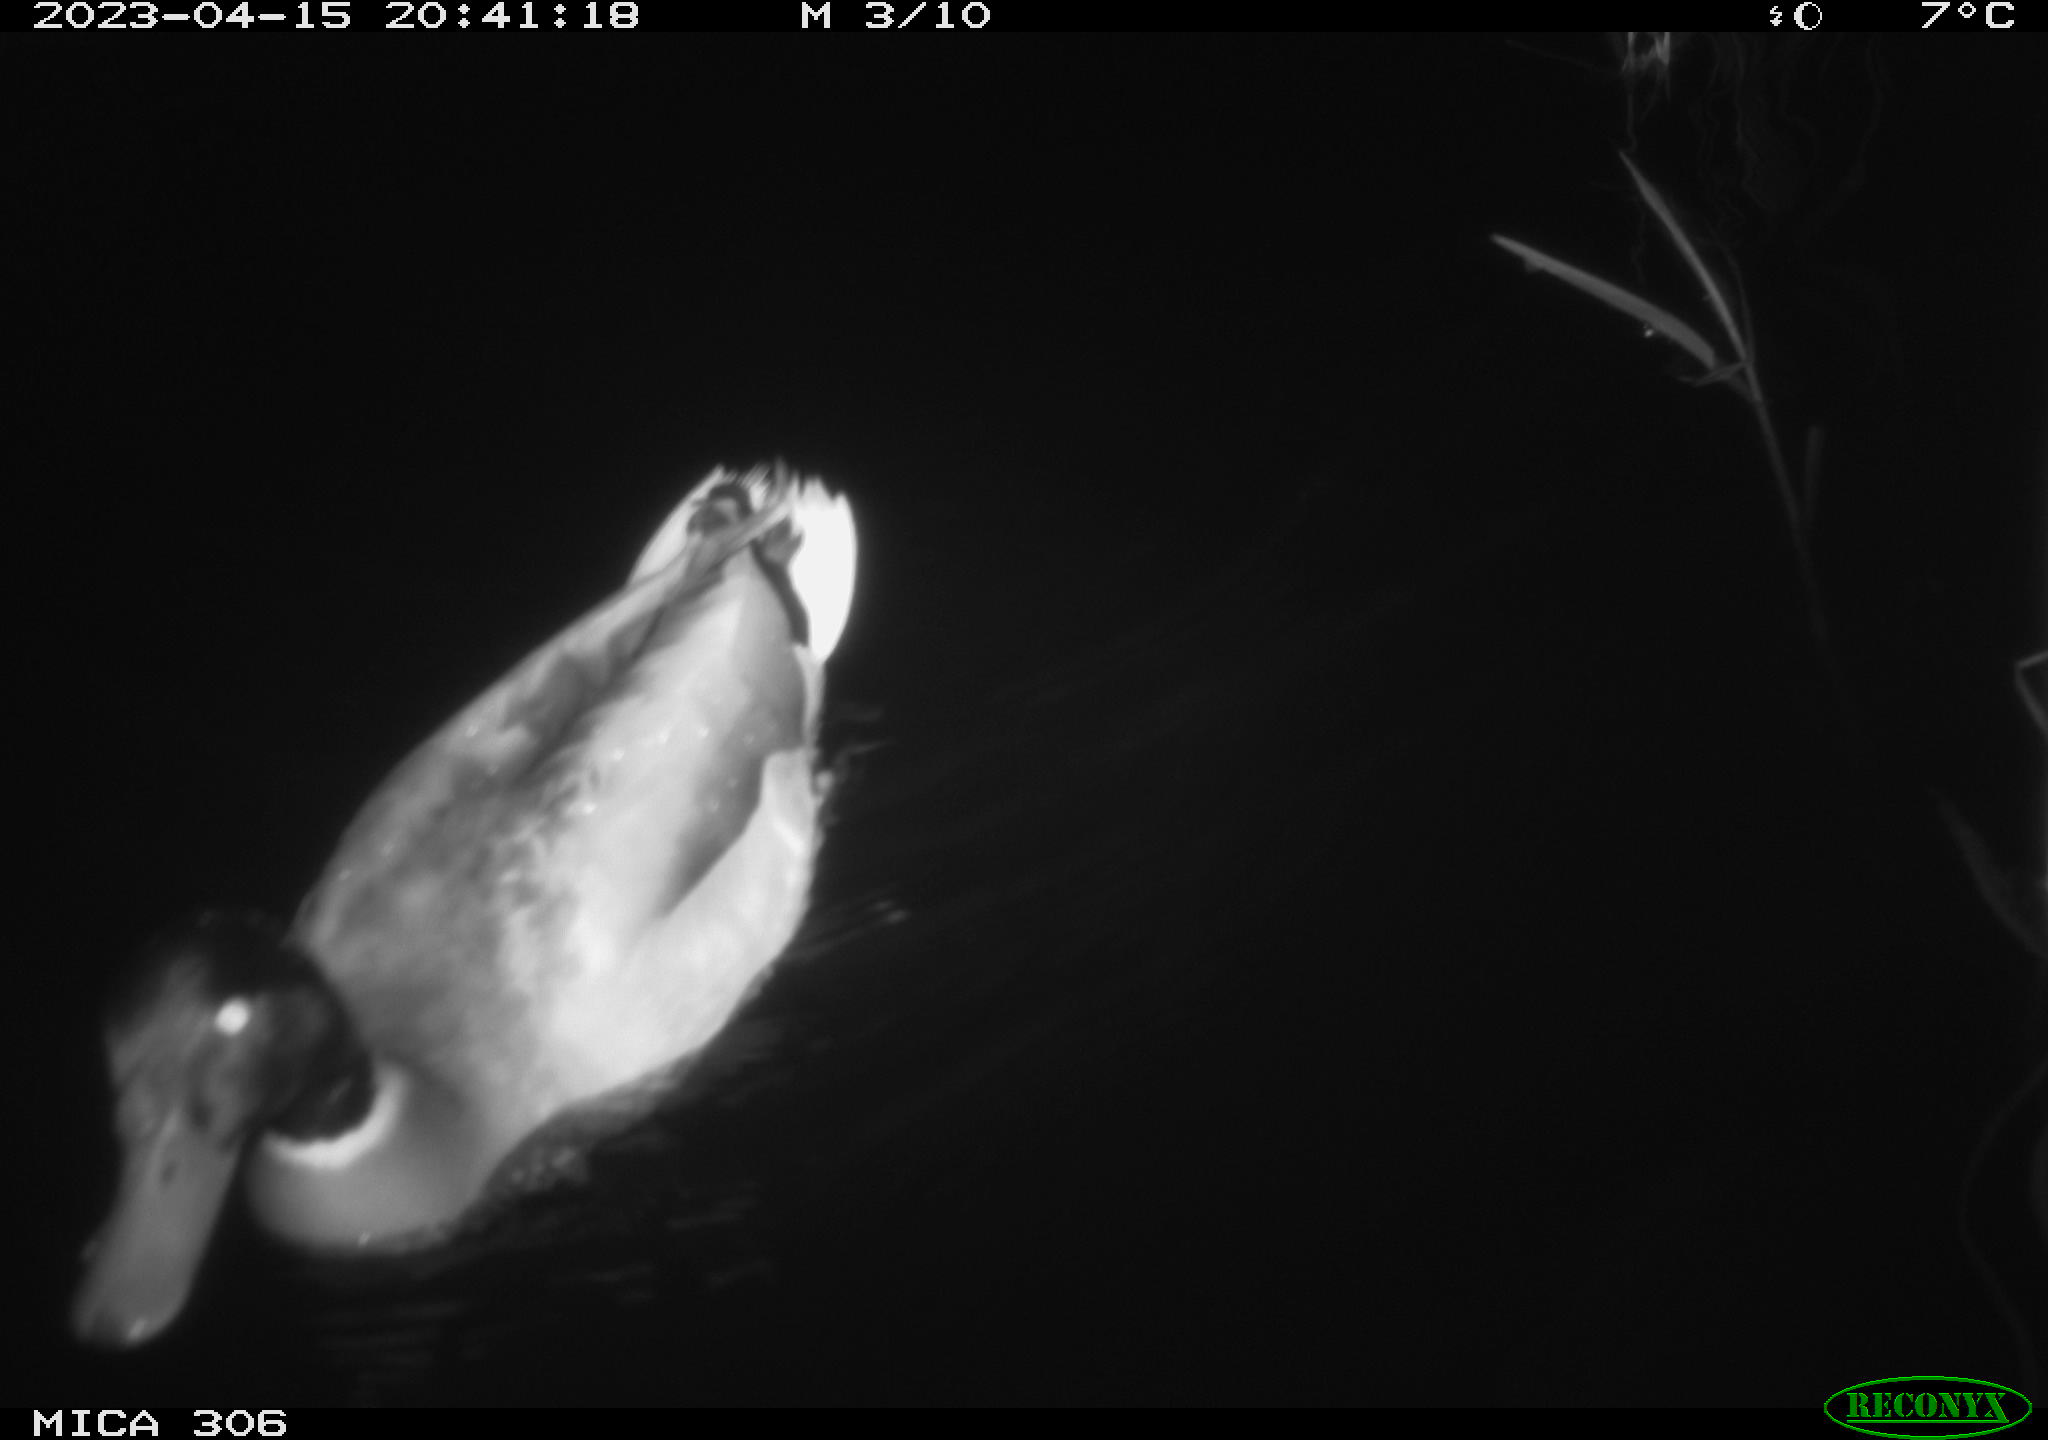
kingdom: Animalia
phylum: Chordata
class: Aves
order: Anseriformes
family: Anatidae
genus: Anas
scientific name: Anas
